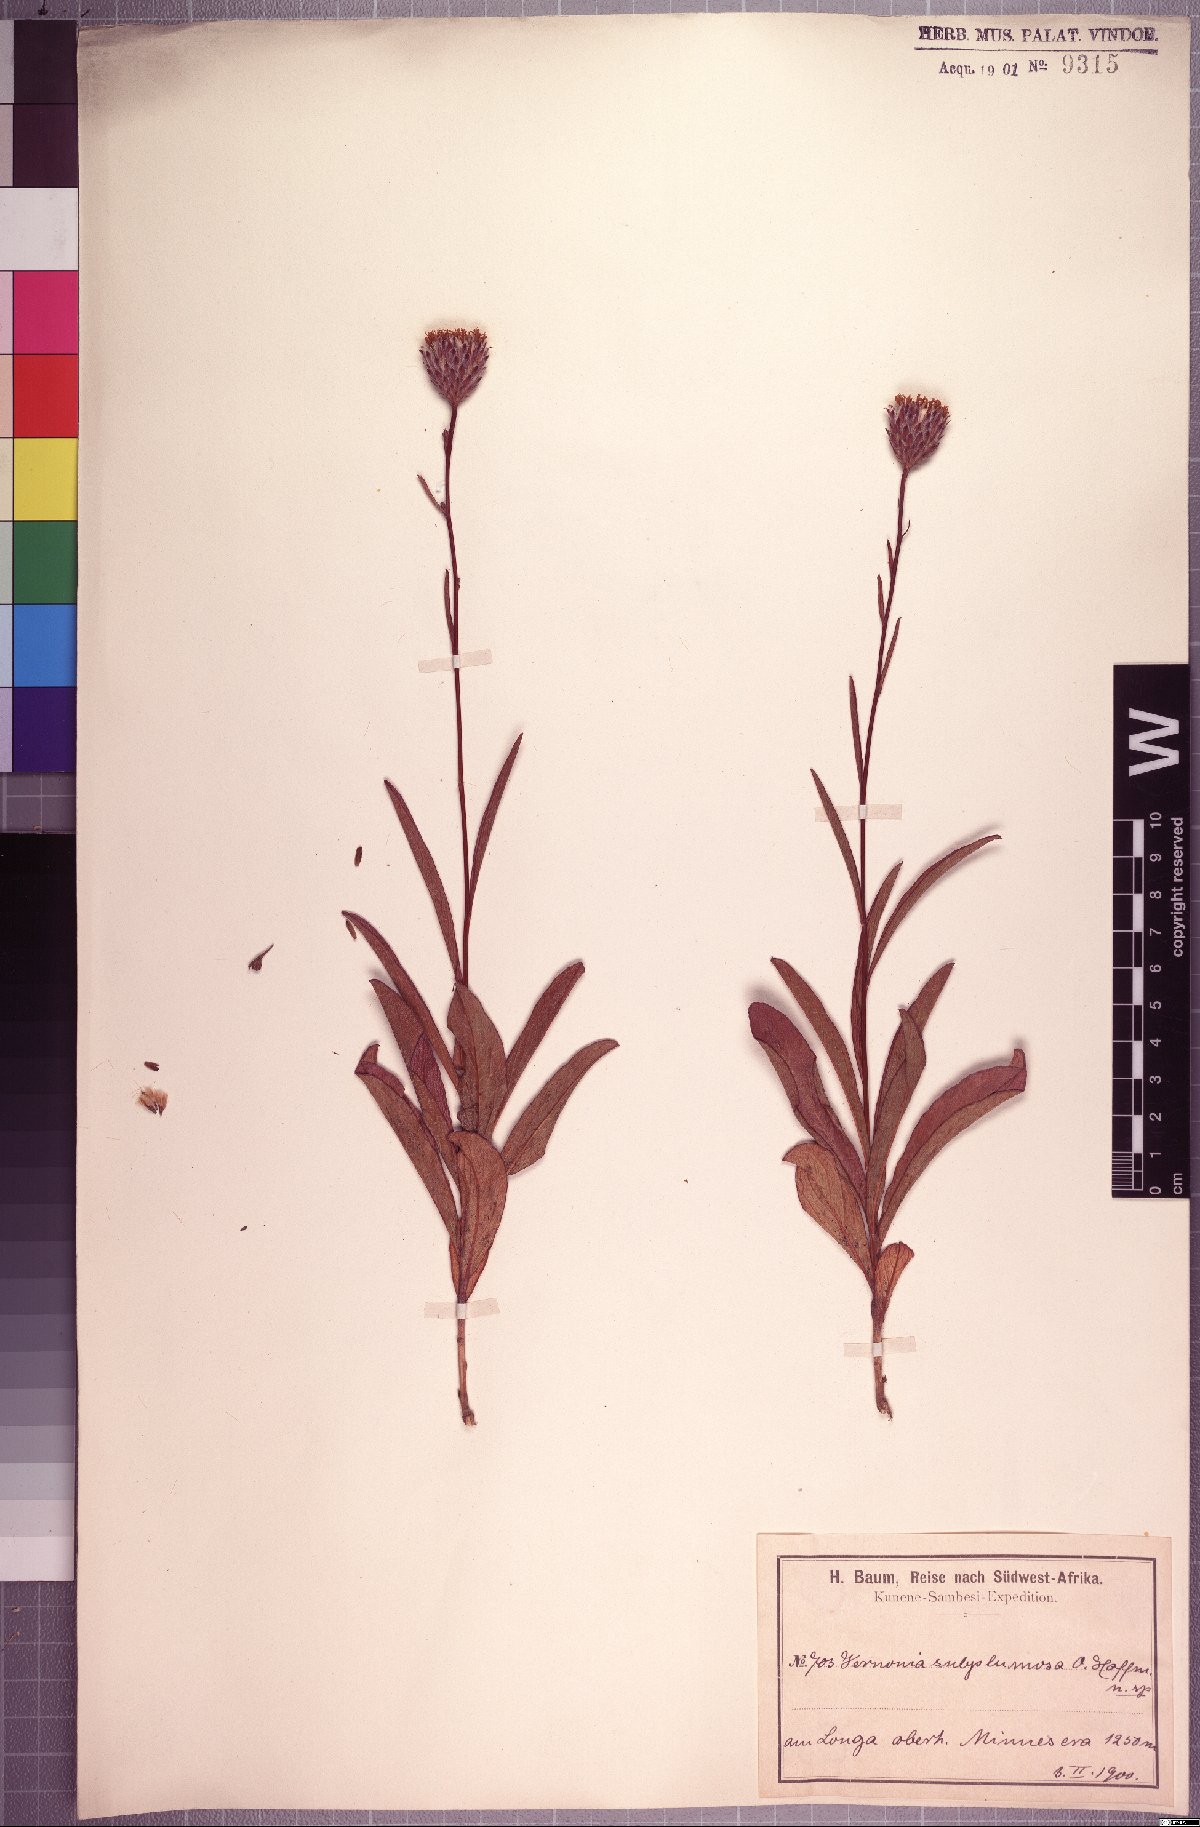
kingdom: Plantae
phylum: Tracheophyta
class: Magnoliopsida
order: Asterales
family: Asteraceae
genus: Vernonia
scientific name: Vernonia subplumosa
